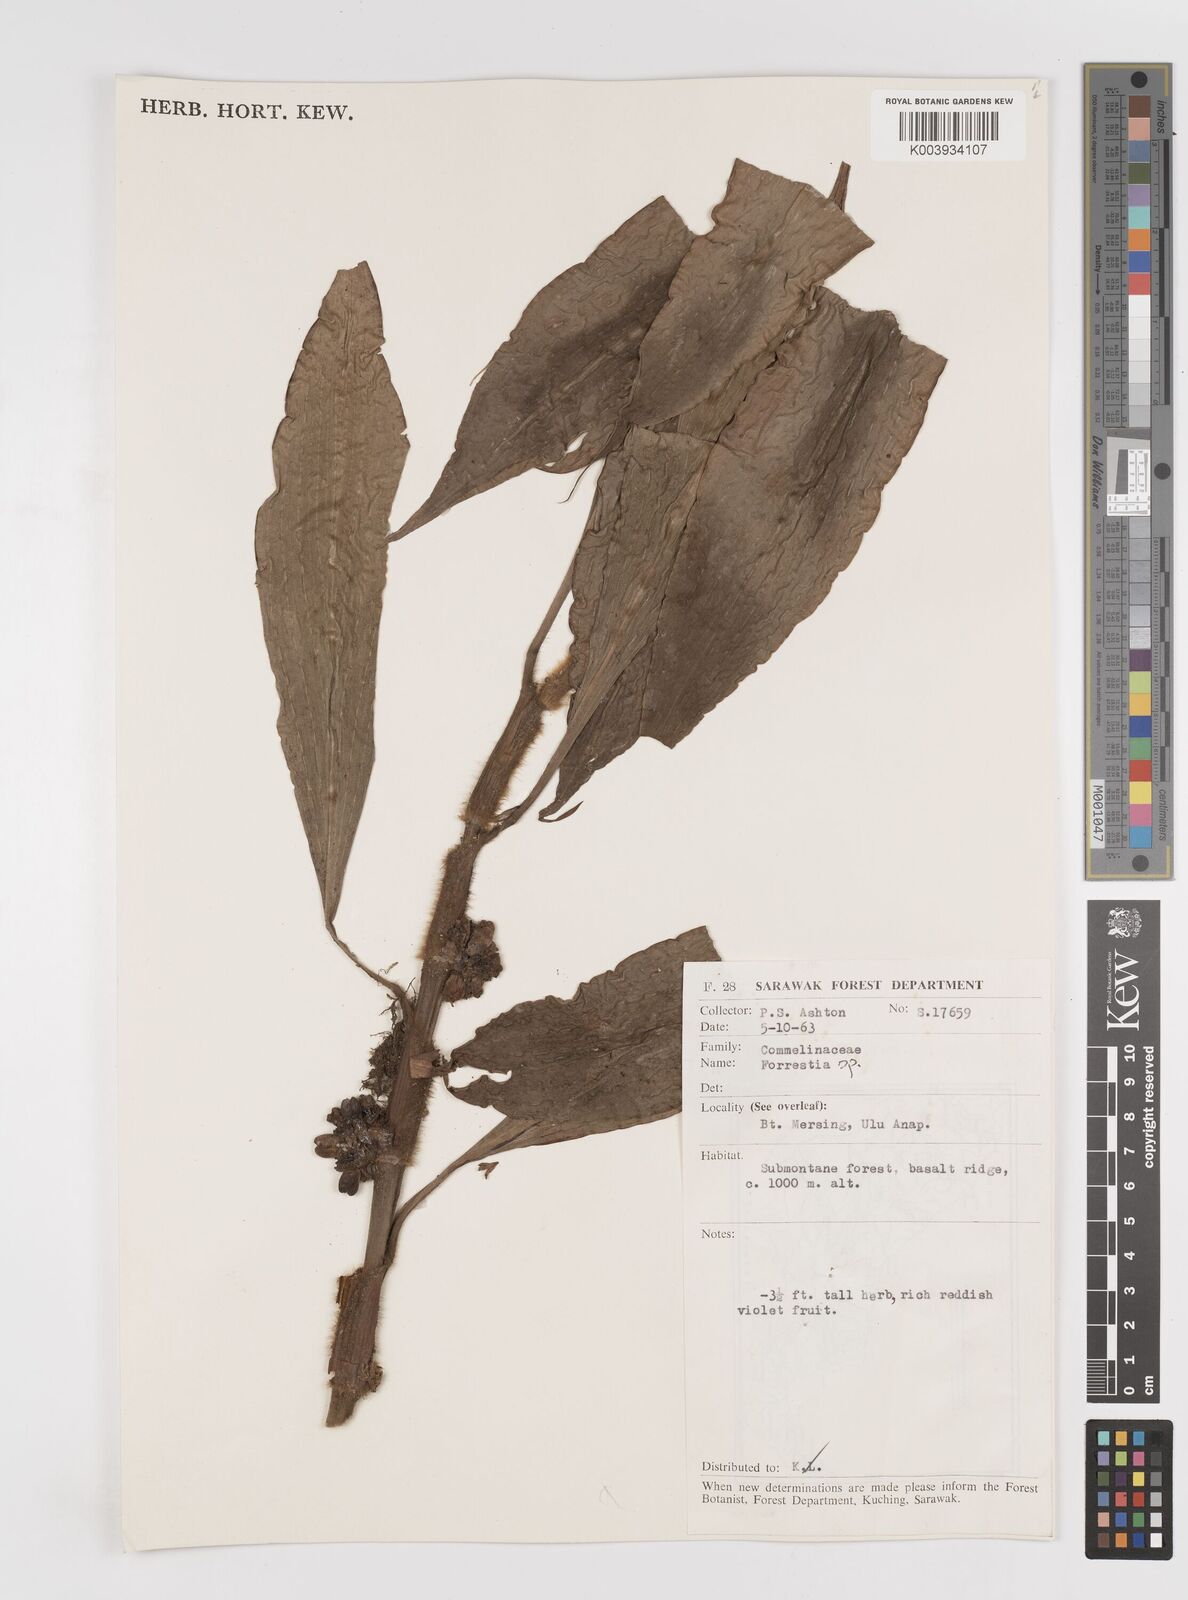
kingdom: Plantae
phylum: Tracheophyta
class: Liliopsida
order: Commelinales
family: Commelinaceae
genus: Amischotolype
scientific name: Amischotolype
